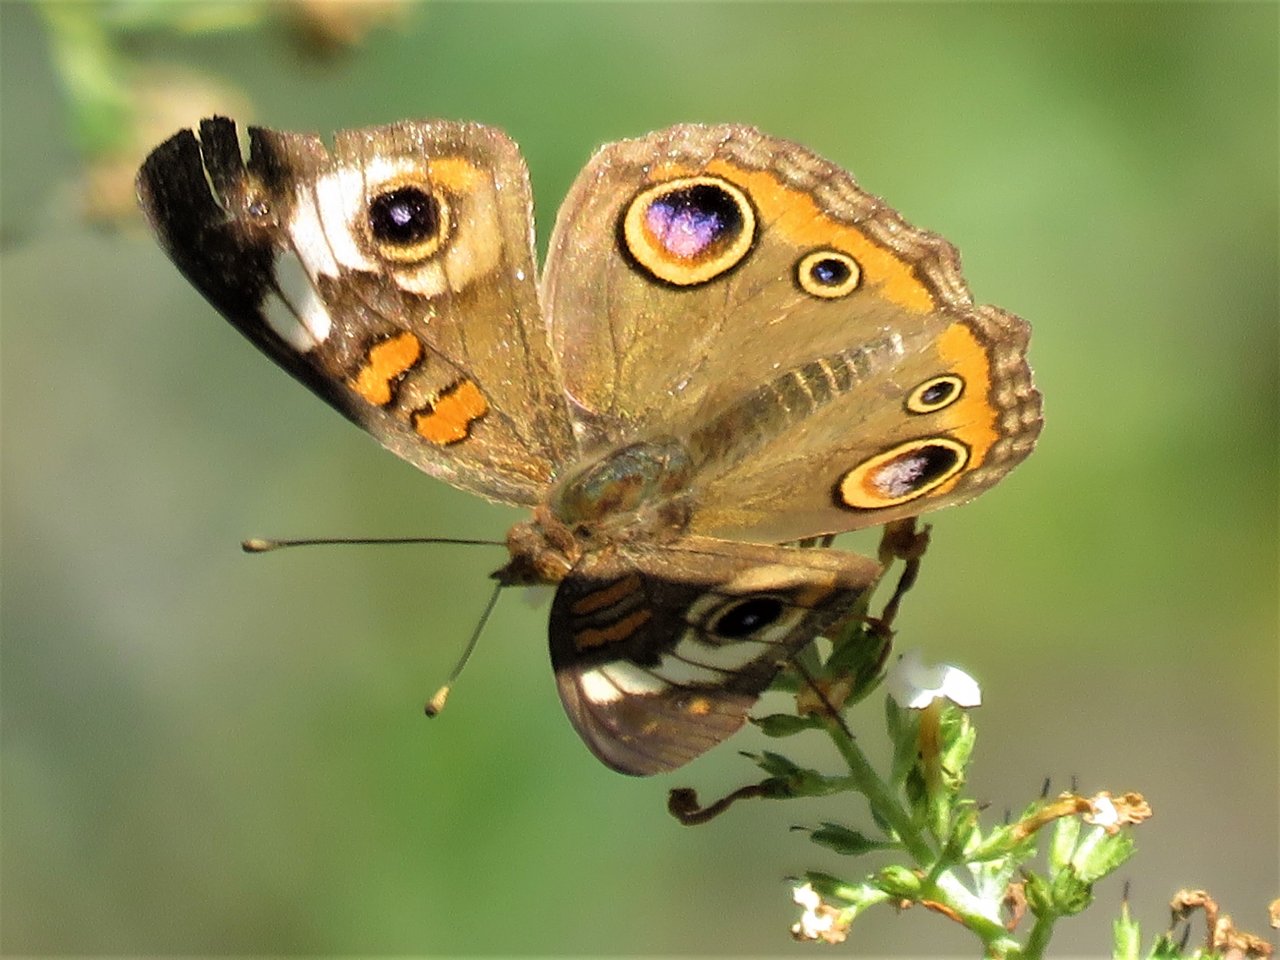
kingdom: Animalia
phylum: Arthropoda
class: Insecta
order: Lepidoptera
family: Nymphalidae
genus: Junonia
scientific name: Junonia coenia
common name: Common Buckeye
